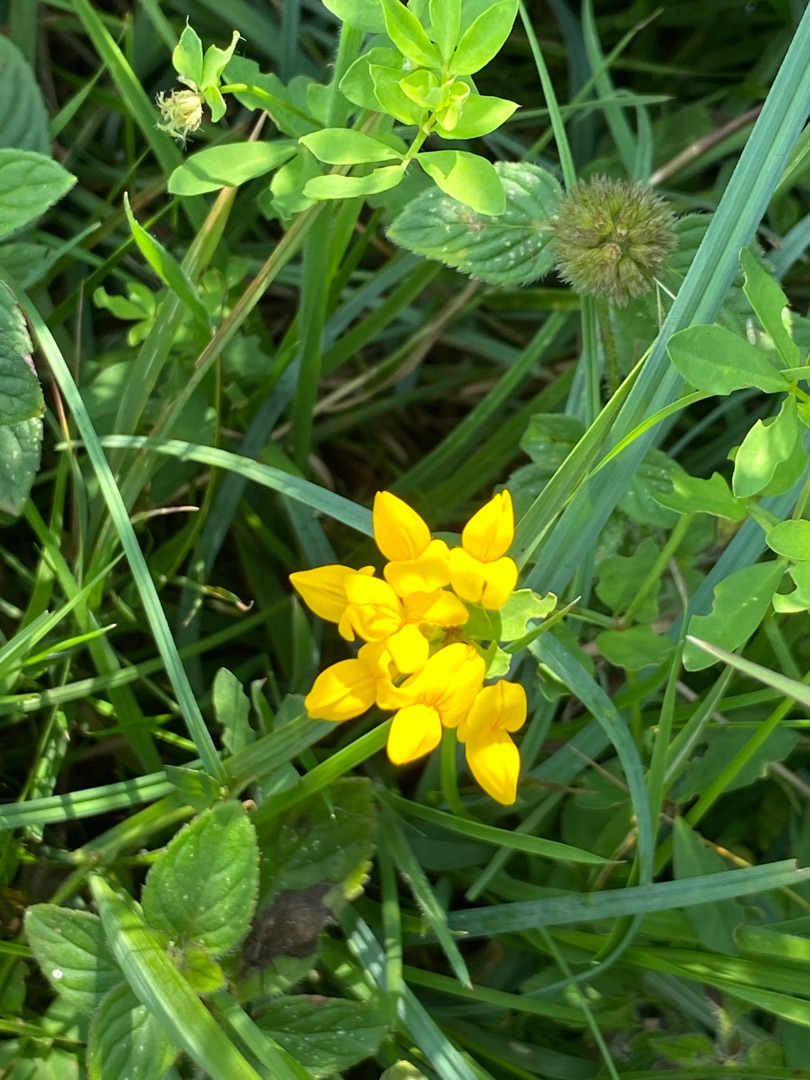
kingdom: Plantae
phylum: Tracheophyta
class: Magnoliopsida
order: Fabales
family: Fabaceae
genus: Lotus
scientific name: Lotus
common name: Kællingetandslægten
